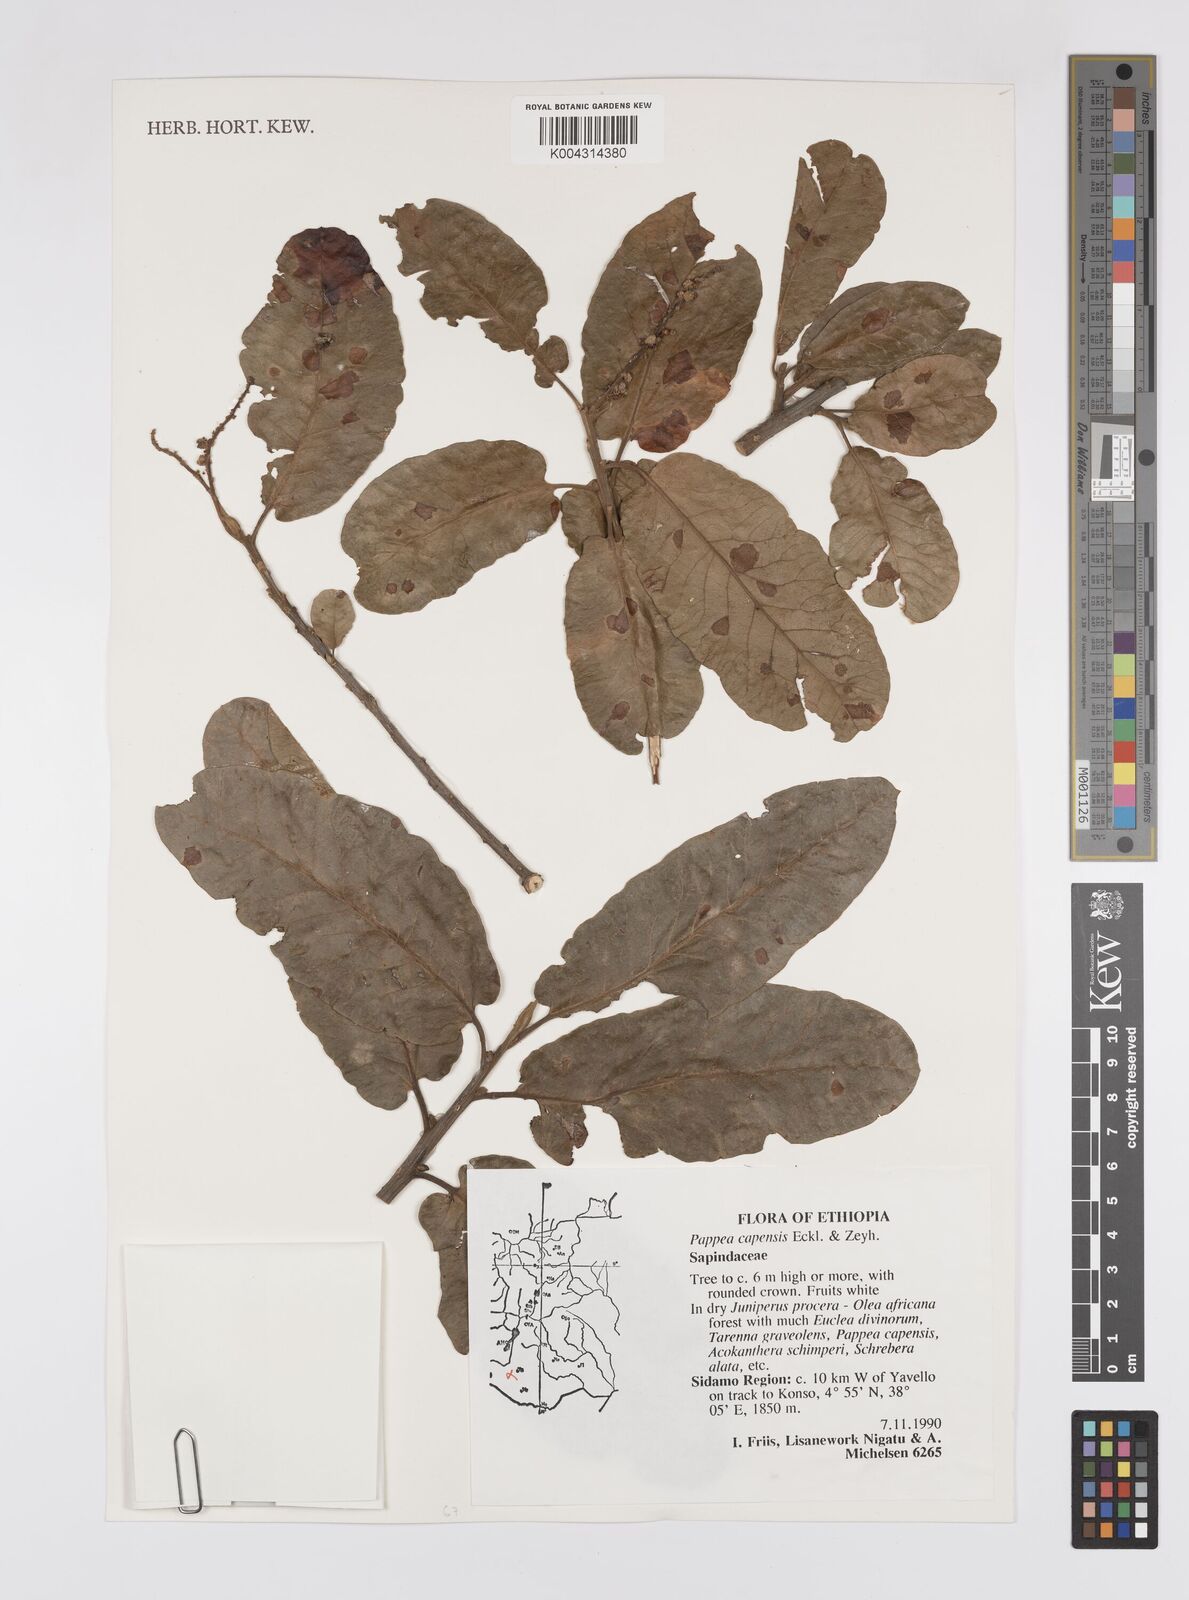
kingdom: Plantae
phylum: Tracheophyta
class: Magnoliopsida
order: Sapindales
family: Sapindaceae
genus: Pappea
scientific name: Pappea capensis
